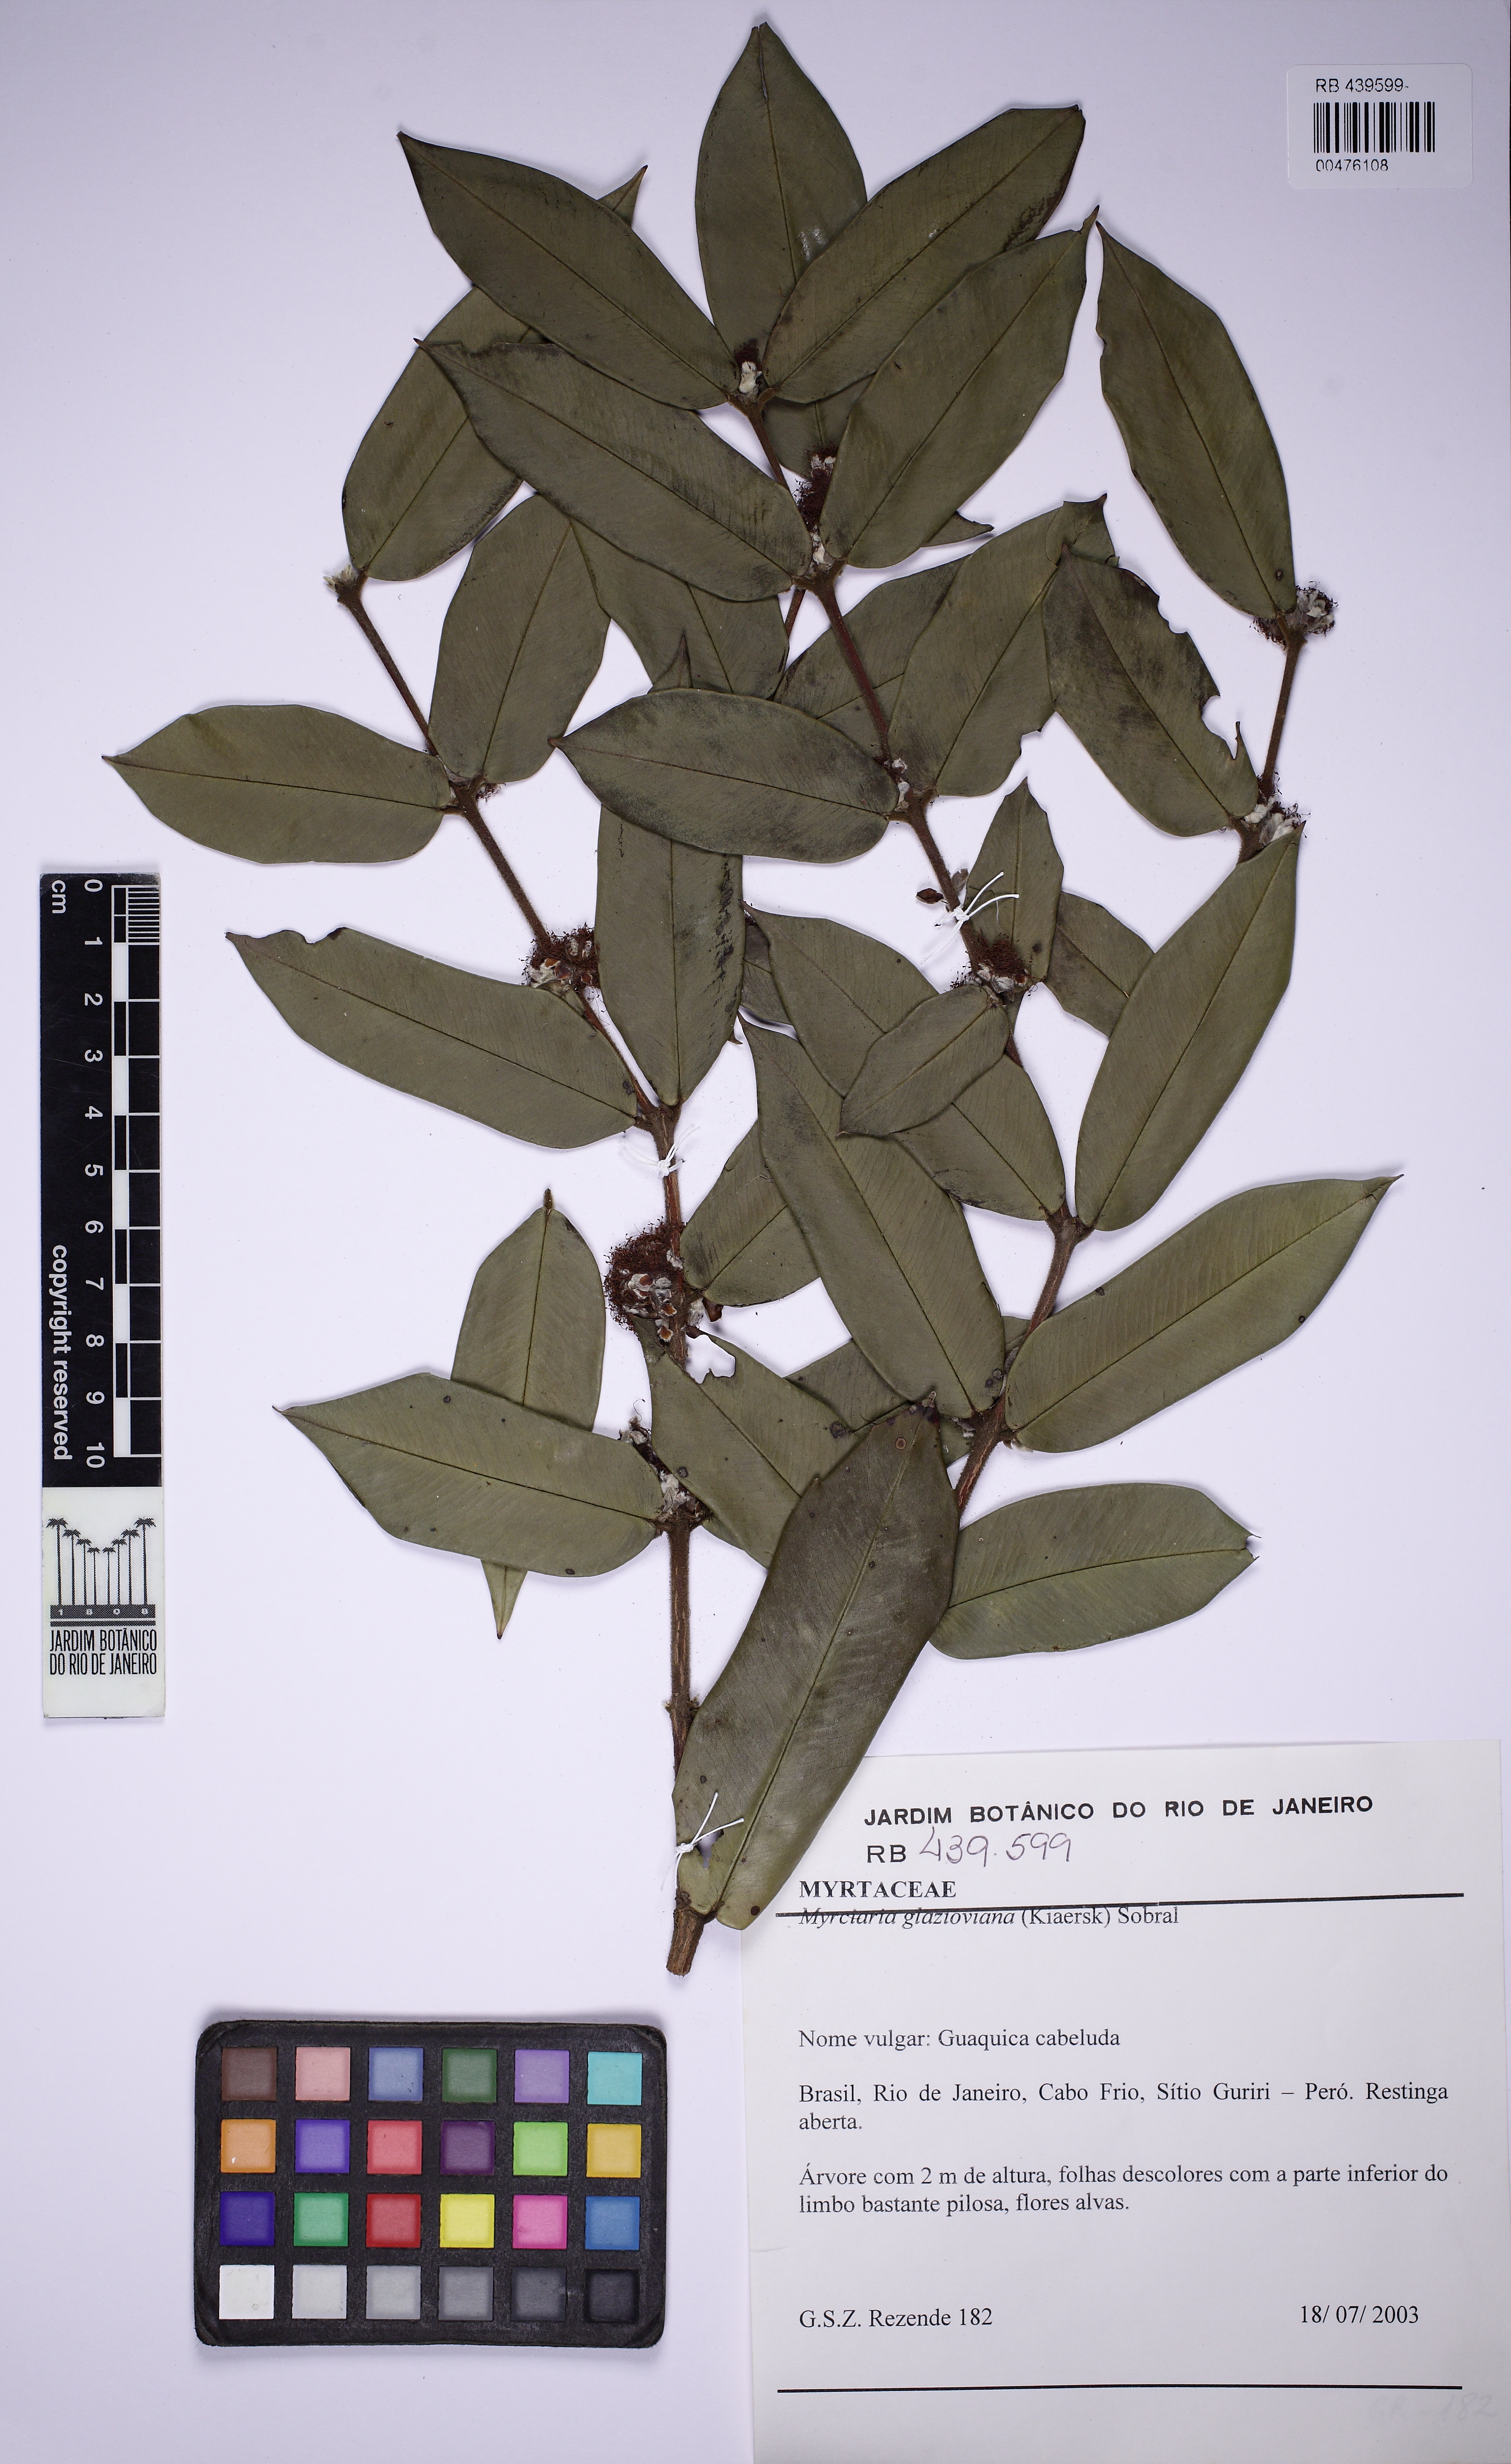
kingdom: Plantae
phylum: Tracheophyta
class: Magnoliopsida
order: Myrtales
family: Myrtaceae
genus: Myrciaria
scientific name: Myrciaria glazioviana
